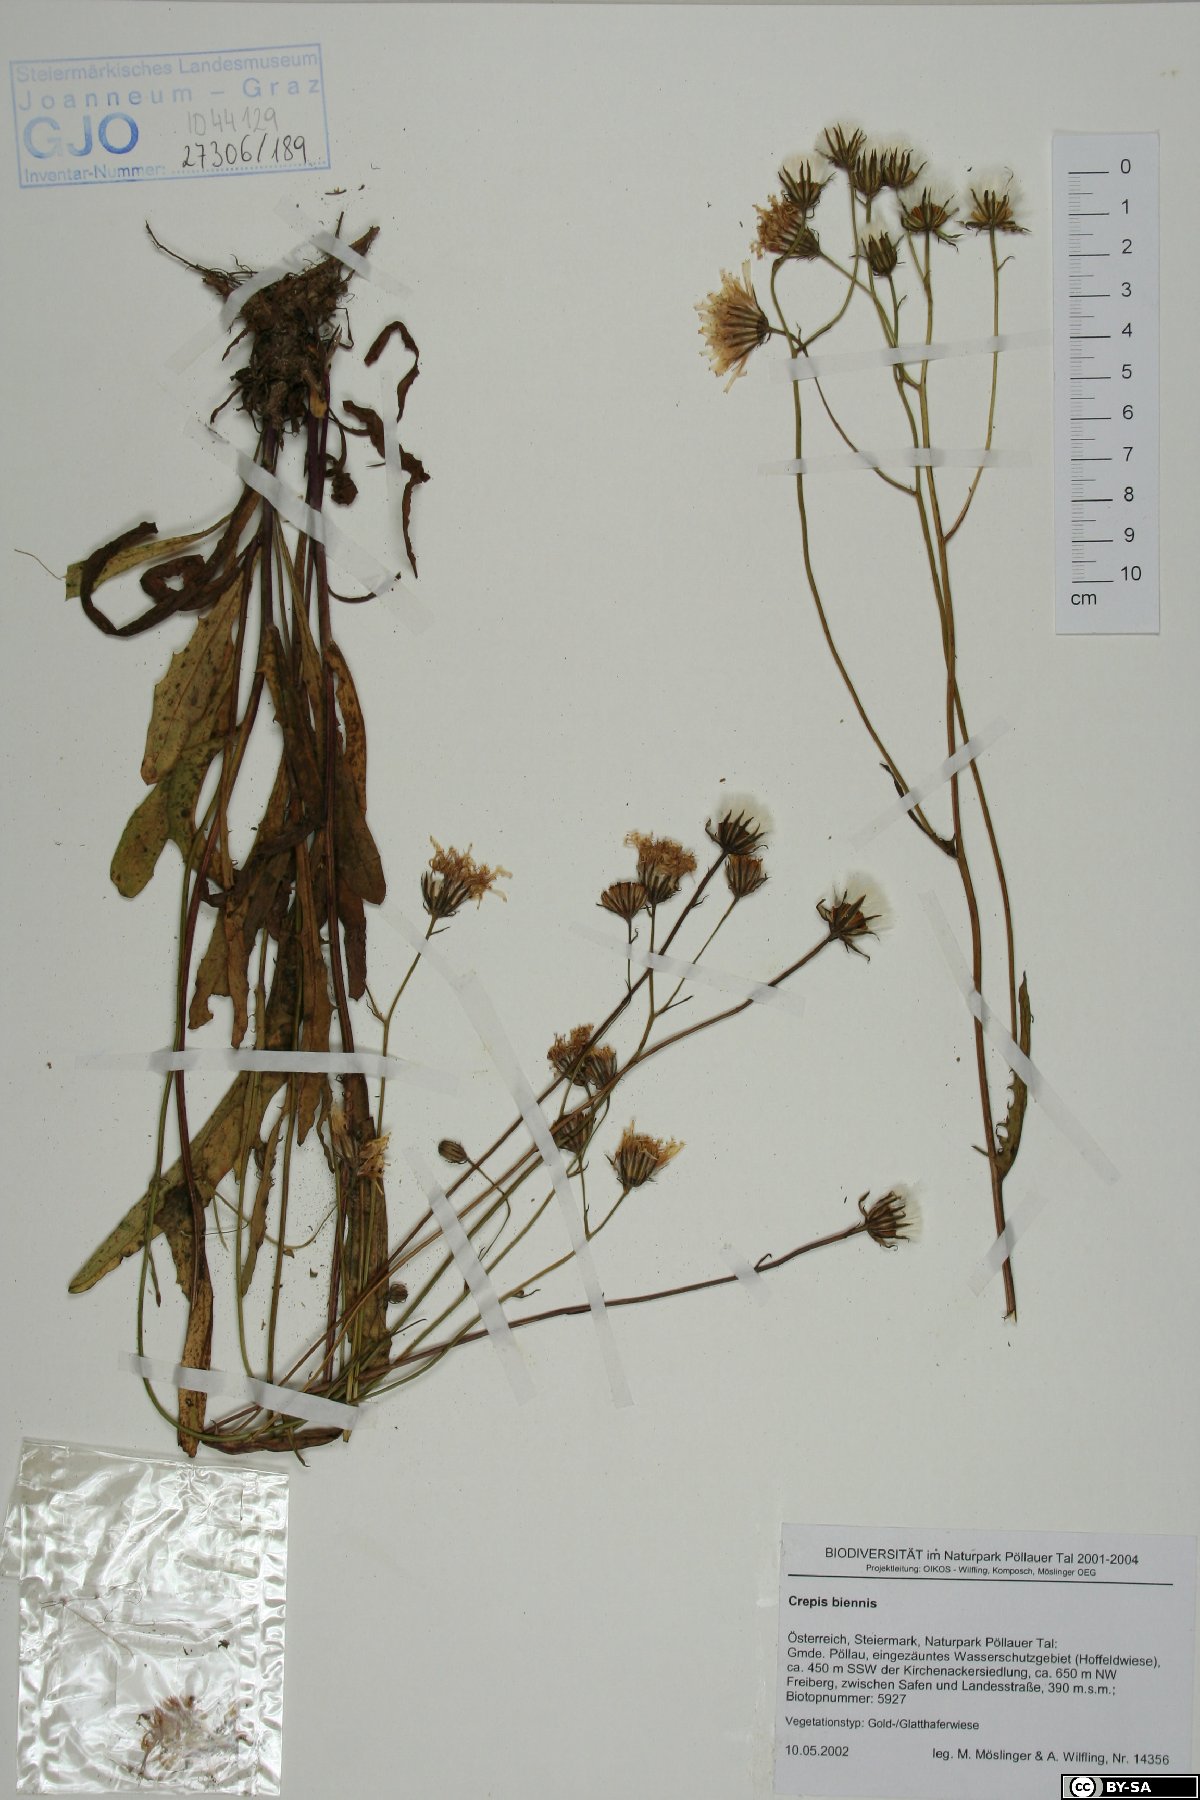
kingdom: Plantae
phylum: Tracheophyta
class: Magnoliopsida
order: Asterales
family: Asteraceae
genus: Crepis
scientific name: Crepis biennis
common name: Rough hawk's-beard
